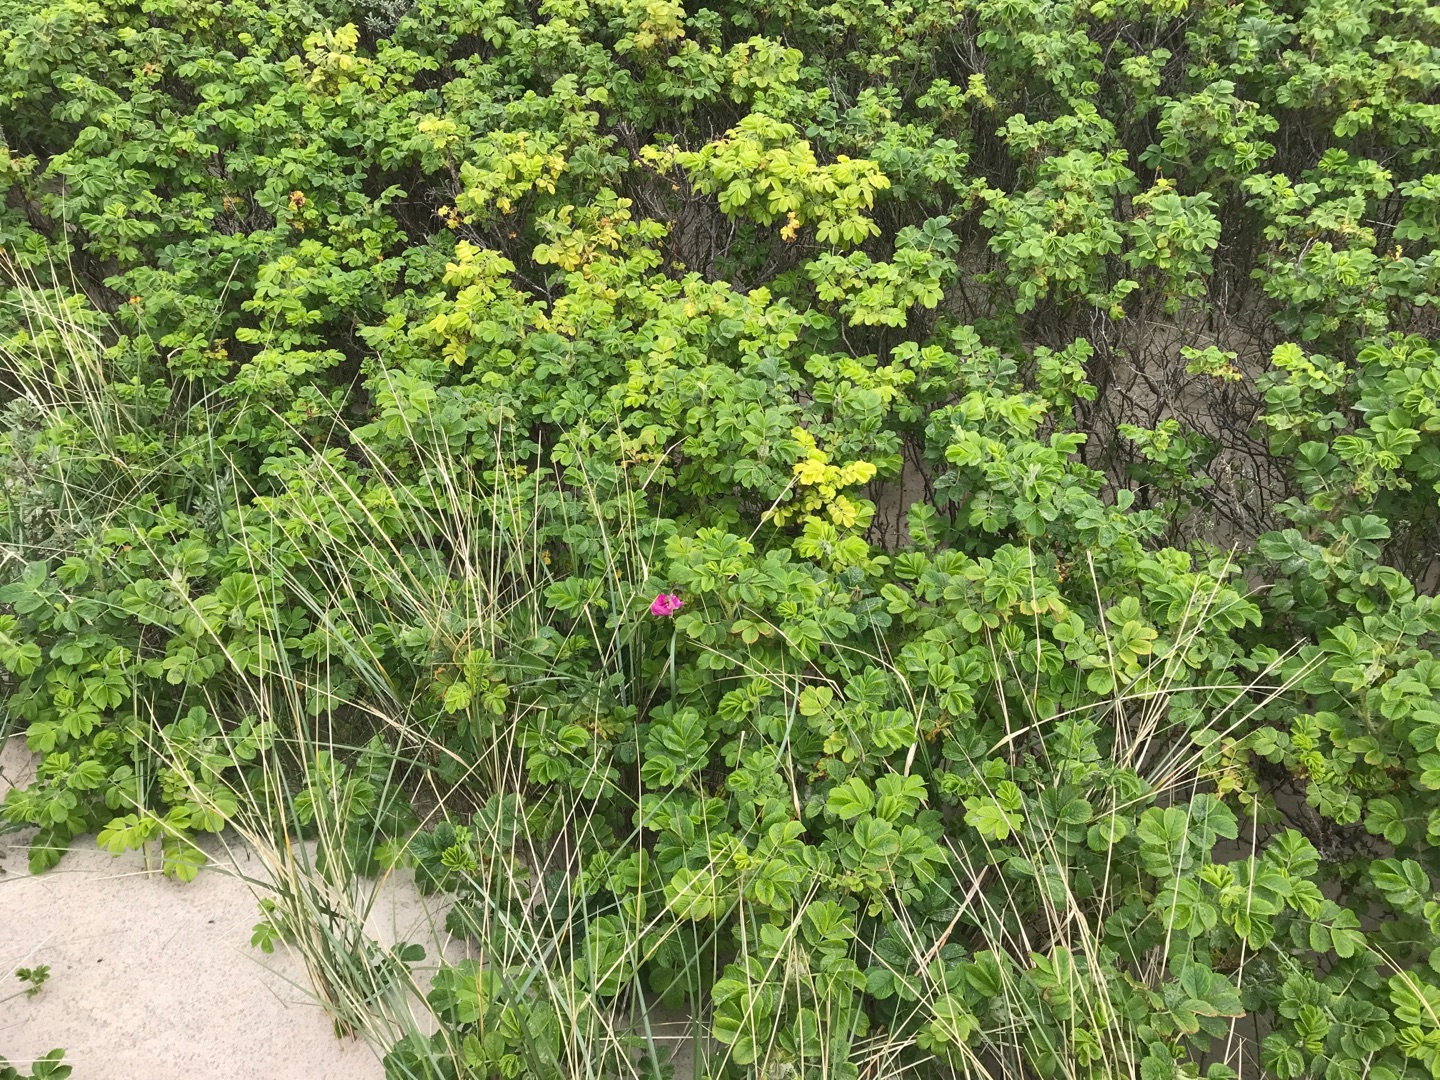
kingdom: Plantae
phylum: Tracheophyta
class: Magnoliopsida
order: Rosales
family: Rosaceae
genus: Rosa
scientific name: Rosa rugosa
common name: Rynket rose
